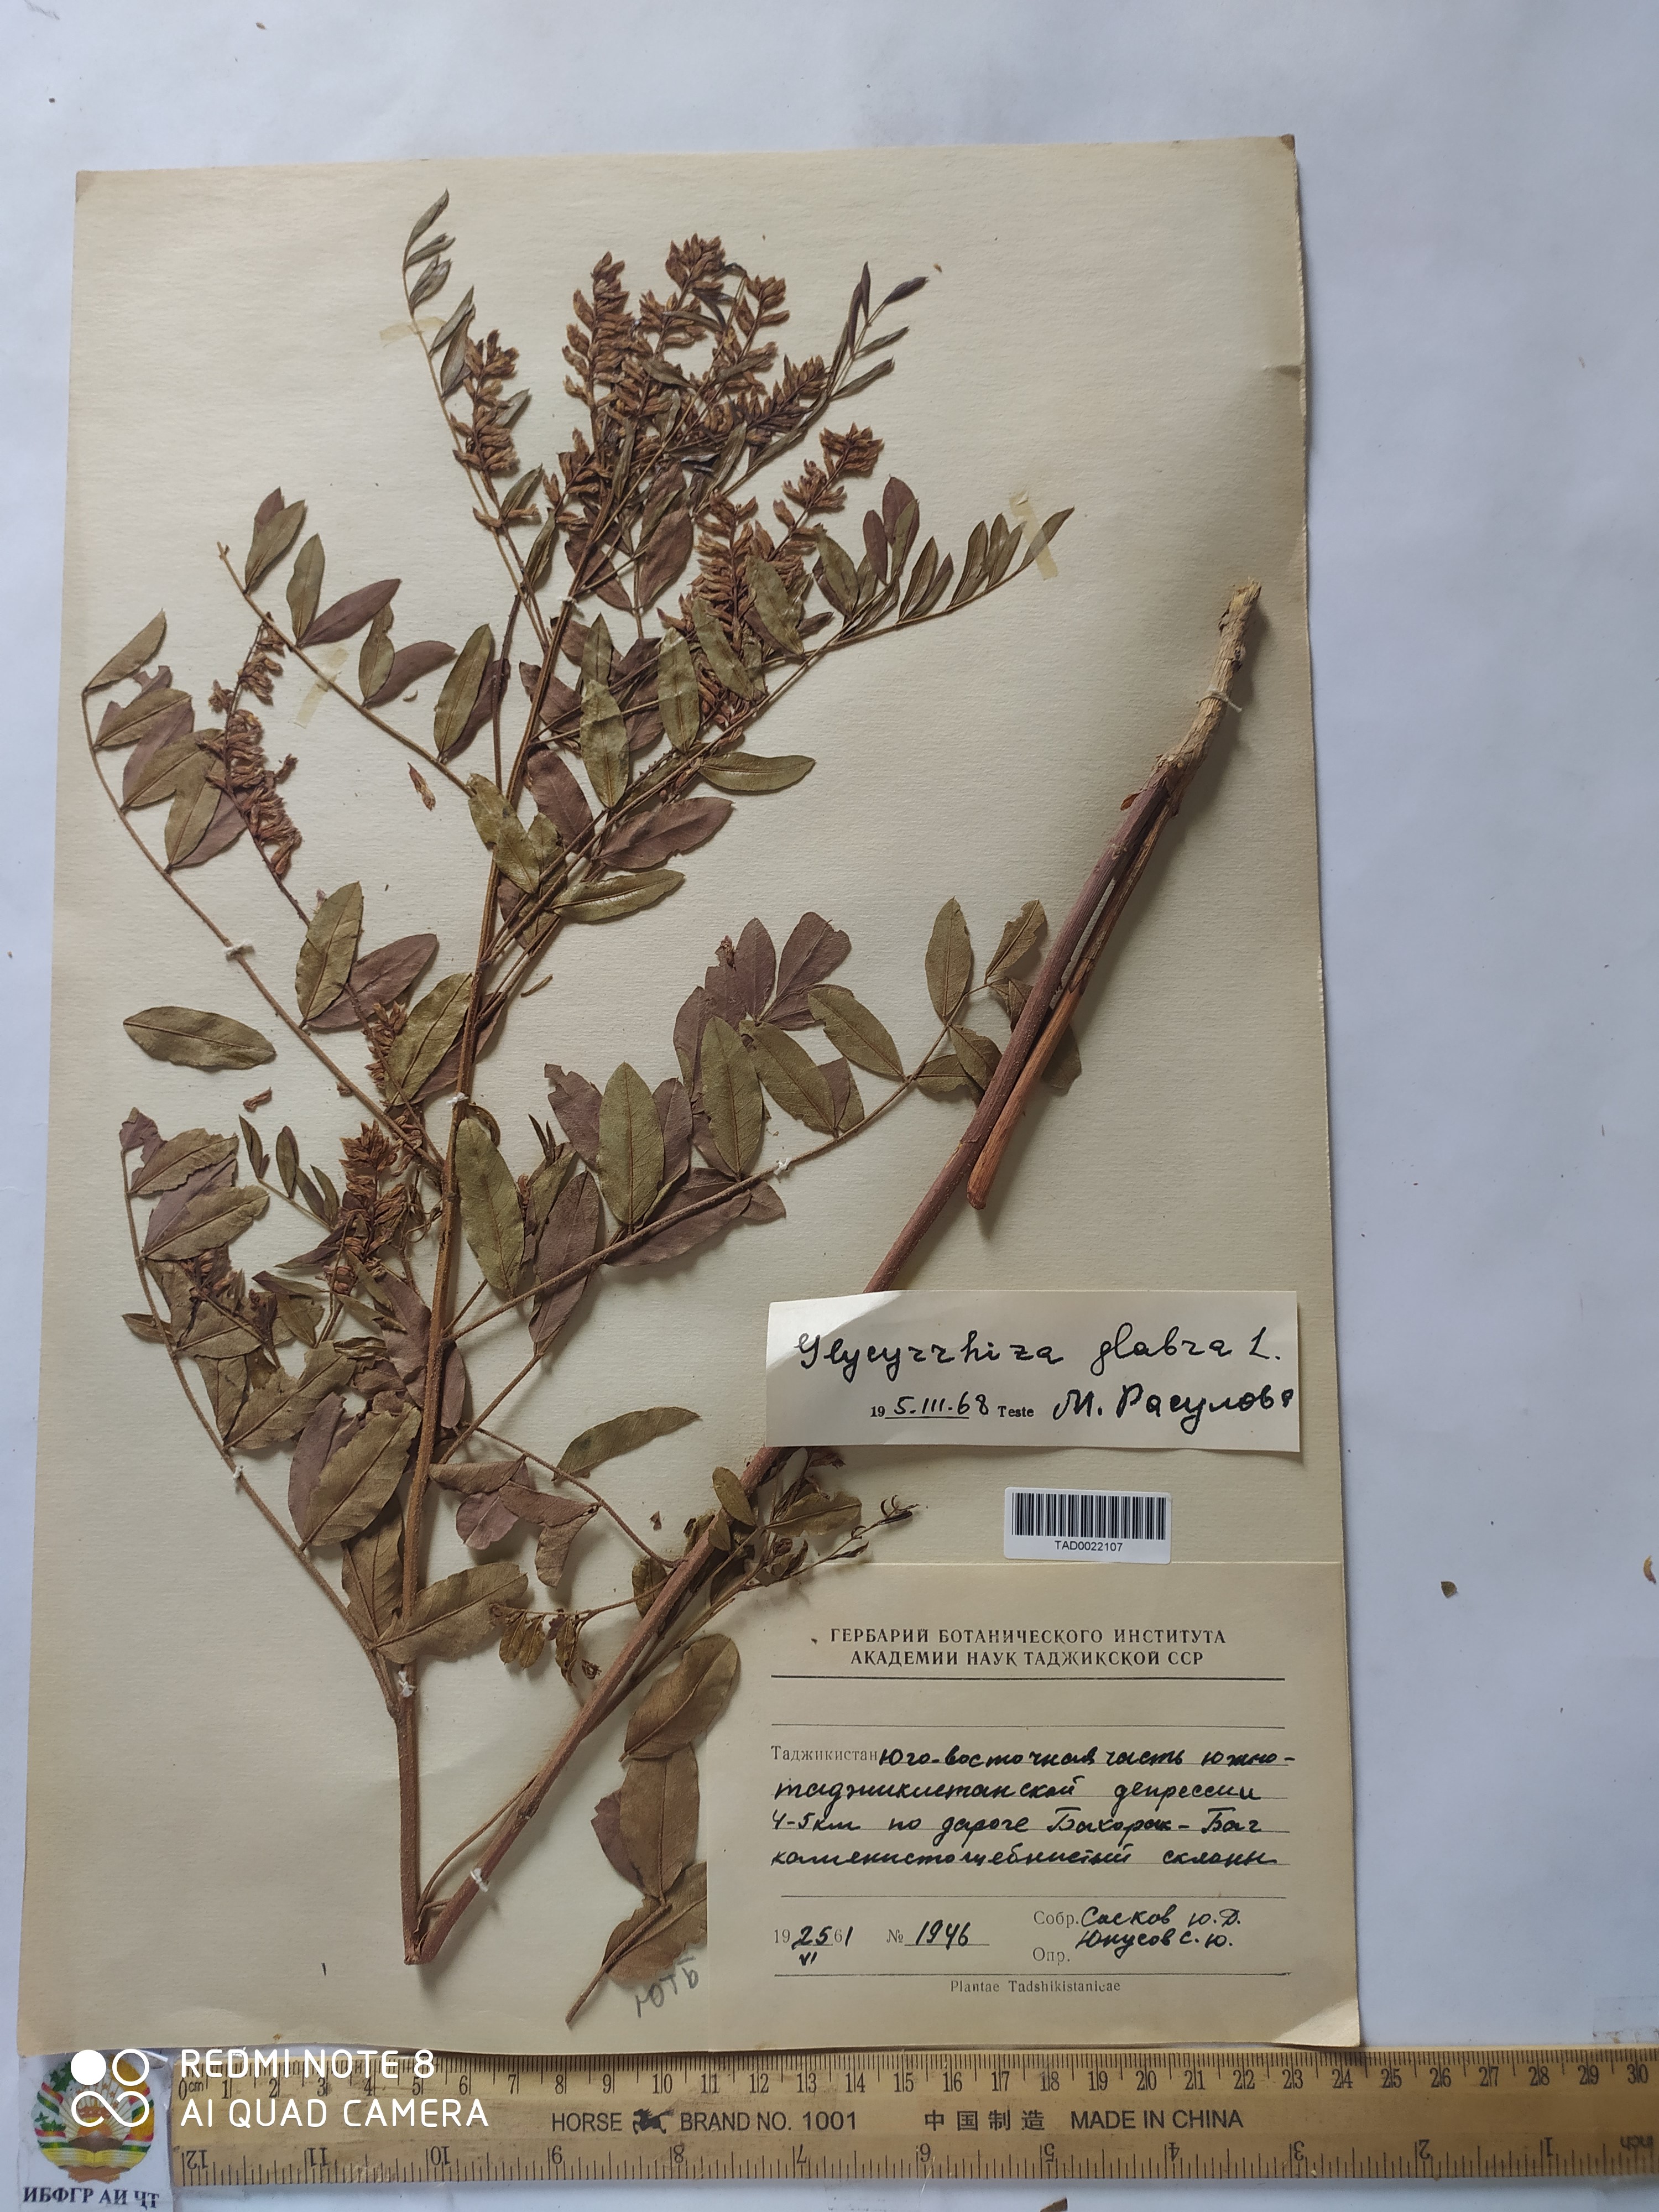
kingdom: Plantae
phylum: Tracheophyta
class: Magnoliopsida
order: Fabales
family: Fabaceae
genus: Glycyrrhiza
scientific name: Glycyrrhiza glabra
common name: Liquorice
